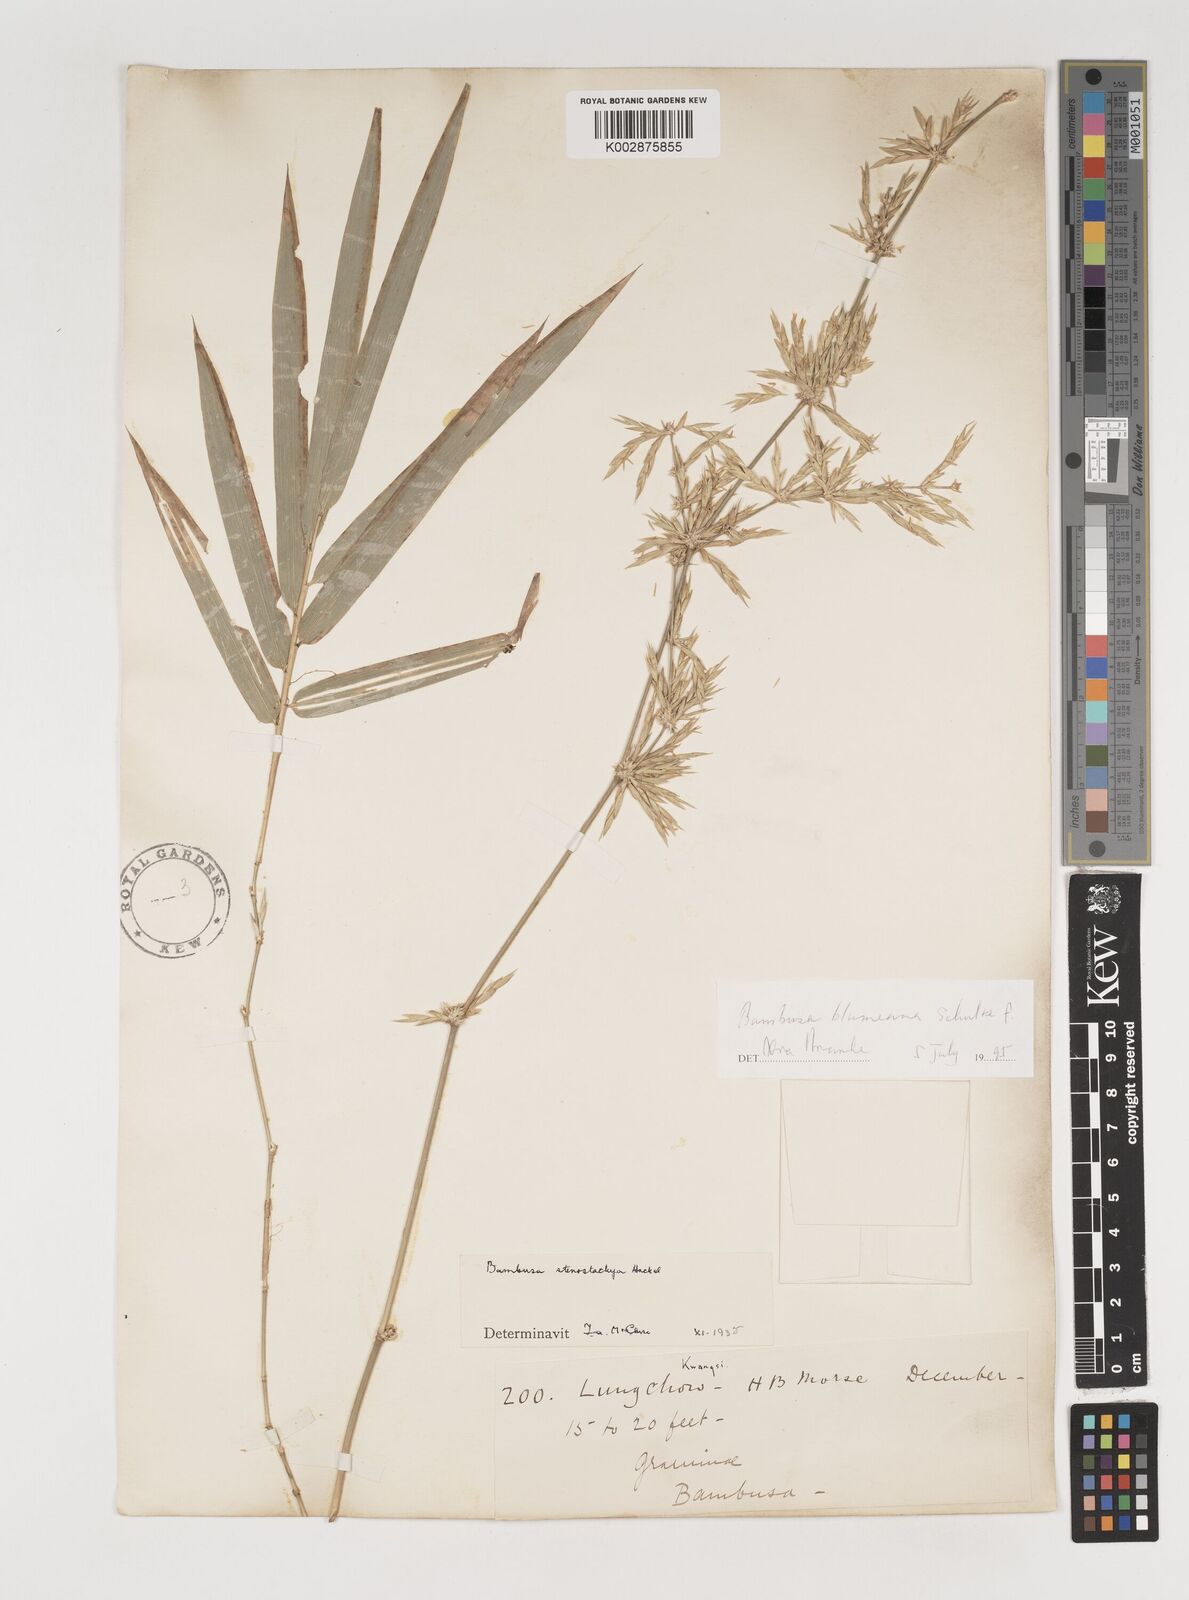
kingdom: Plantae
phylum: Tracheophyta
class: Liliopsida
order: Poales
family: Poaceae
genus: Bambusa
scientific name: Bambusa spinosa
